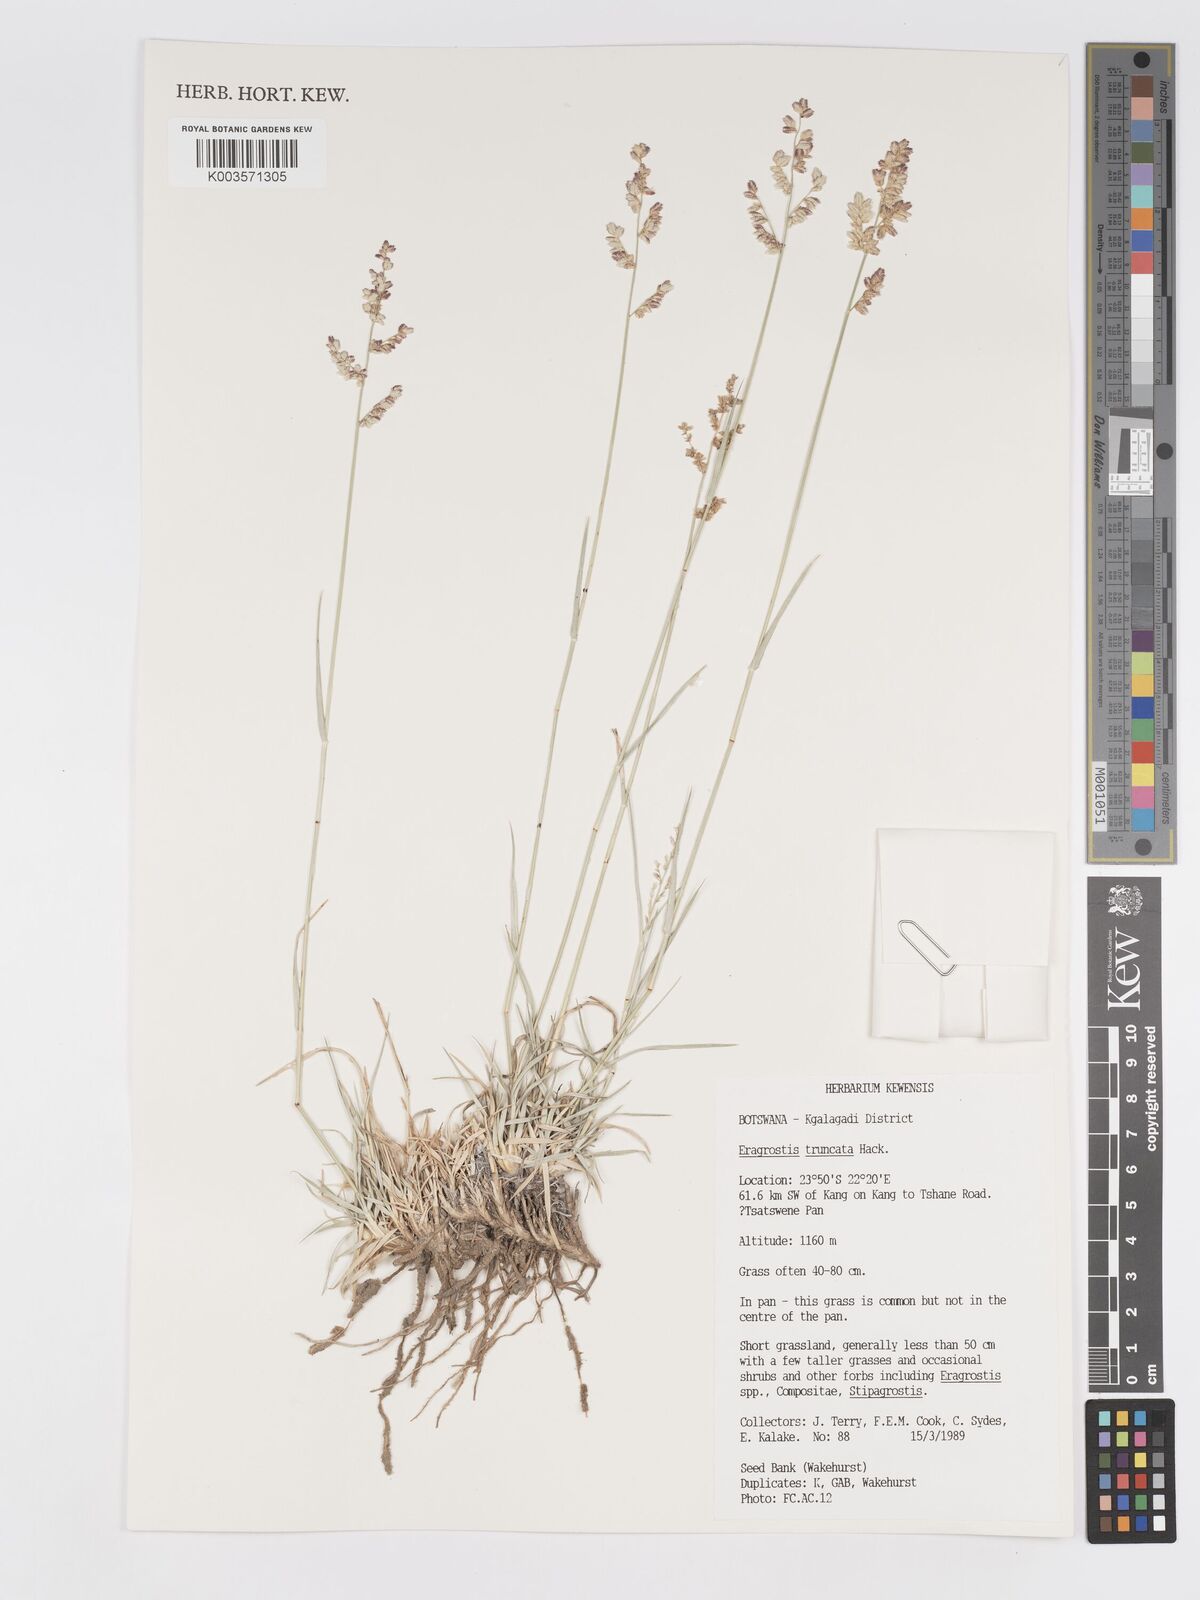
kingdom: Plantae
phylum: Tracheophyta
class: Liliopsida
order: Poales
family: Poaceae
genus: Eragrostis
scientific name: Eragrostis truncata
